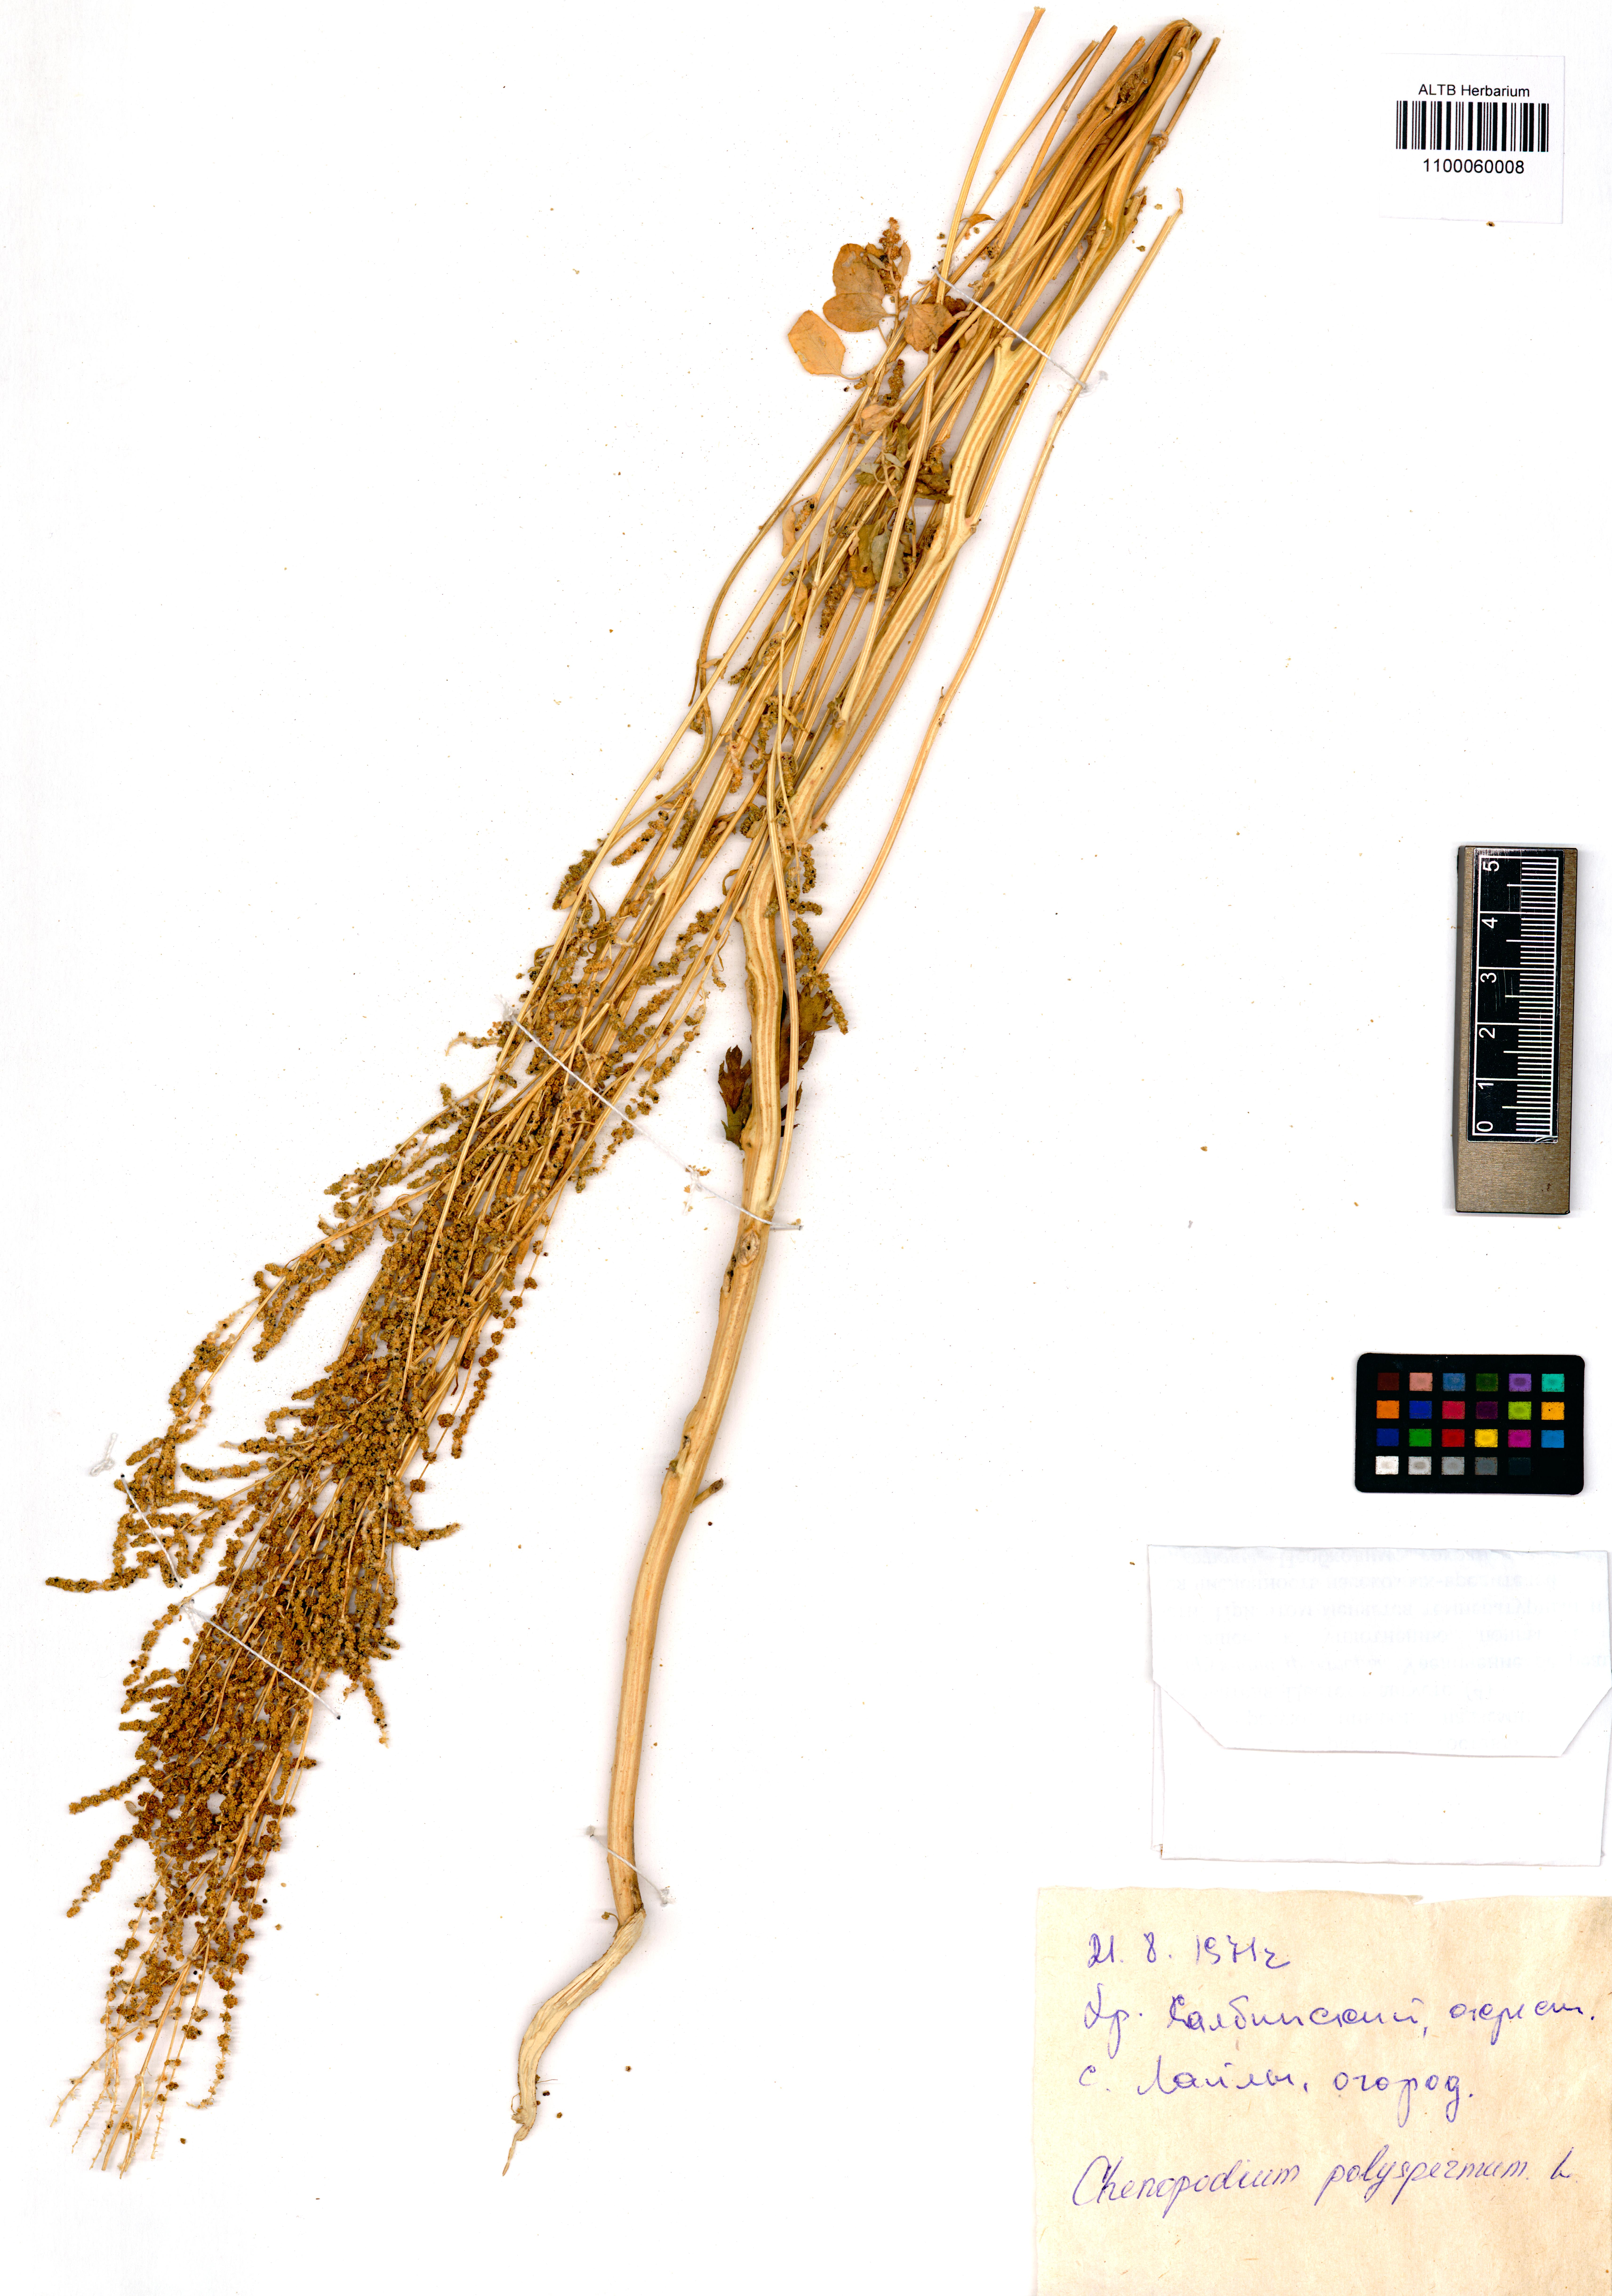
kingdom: Plantae
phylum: Tracheophyta
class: Magnoliopsida
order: Caryophyllales
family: Amaranthaceae
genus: Lipandra
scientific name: Lipandra polysperma
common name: Many-seed goosefoot
